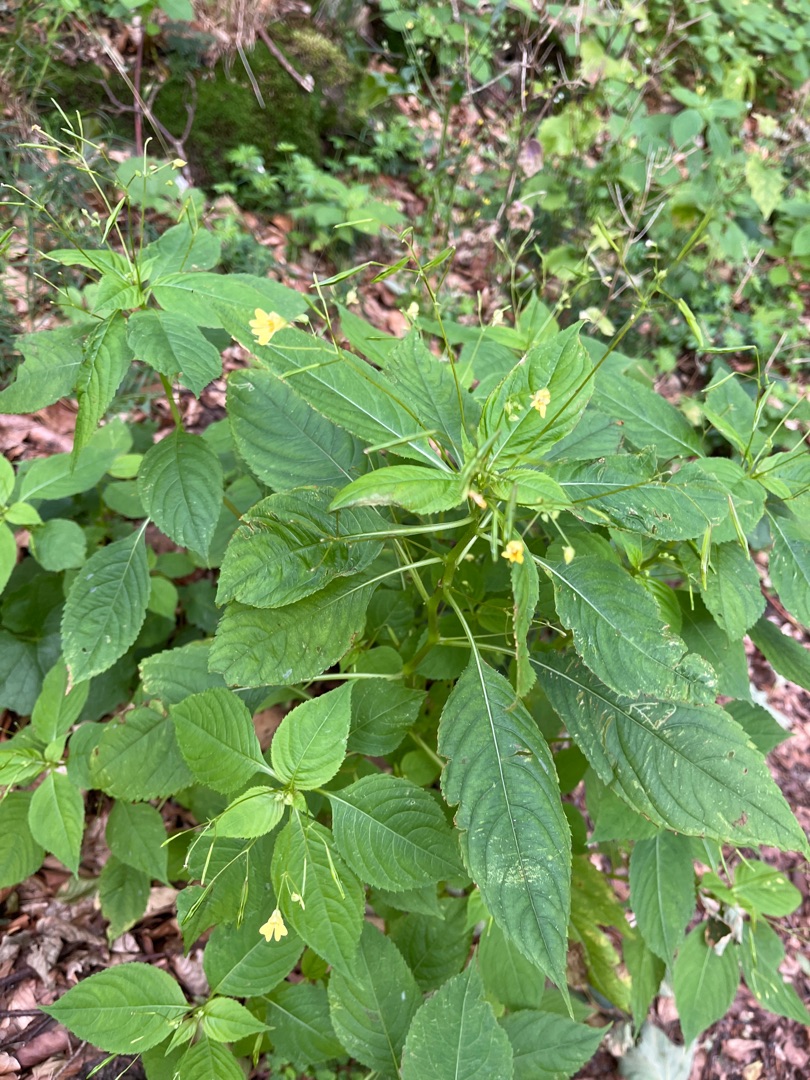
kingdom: Plantae
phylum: Tracheophyta
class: Magnoliopsida
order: Ericales
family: Balsaminaceae
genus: Impatiens
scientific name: Impatiens parviflora
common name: Småblomstret balsamin
